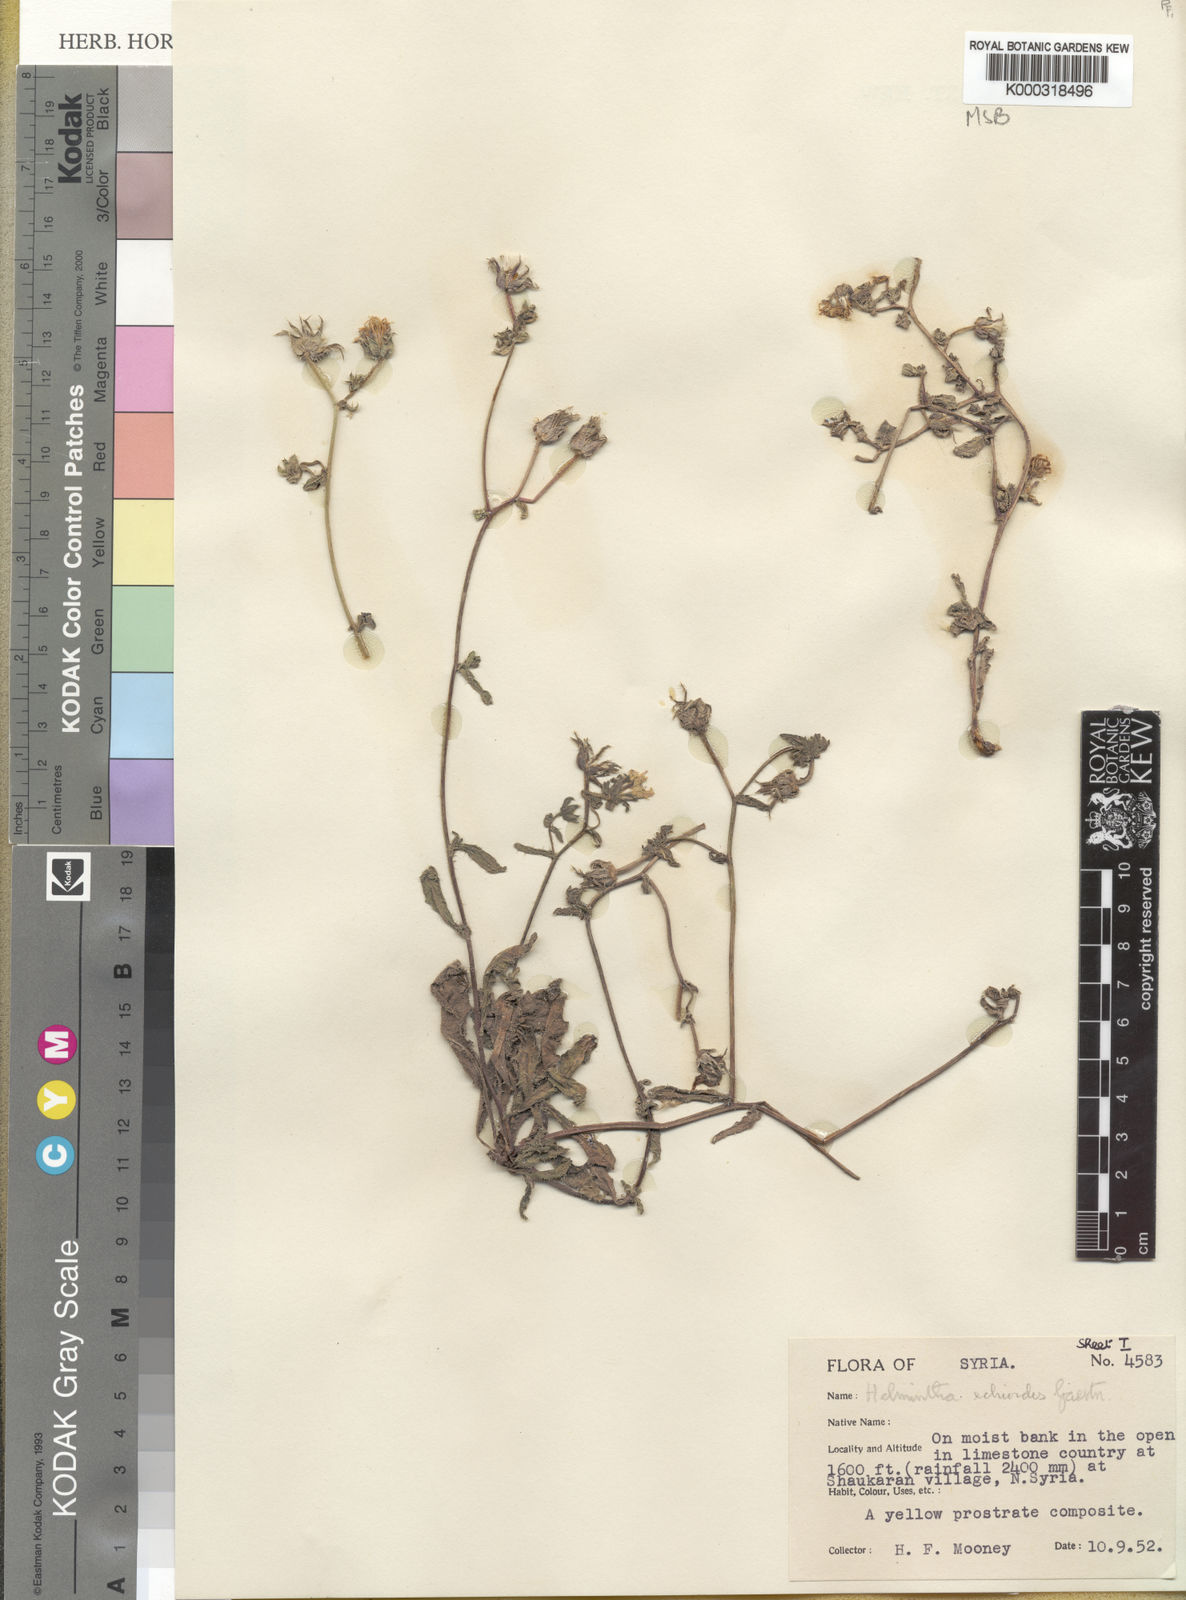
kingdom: Plantae
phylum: Tracheophyta
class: Magnoliopsida
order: Asterales
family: Asteraceae
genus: Helminthotheca
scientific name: Helminthotheca echioides
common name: Ox-tongue
